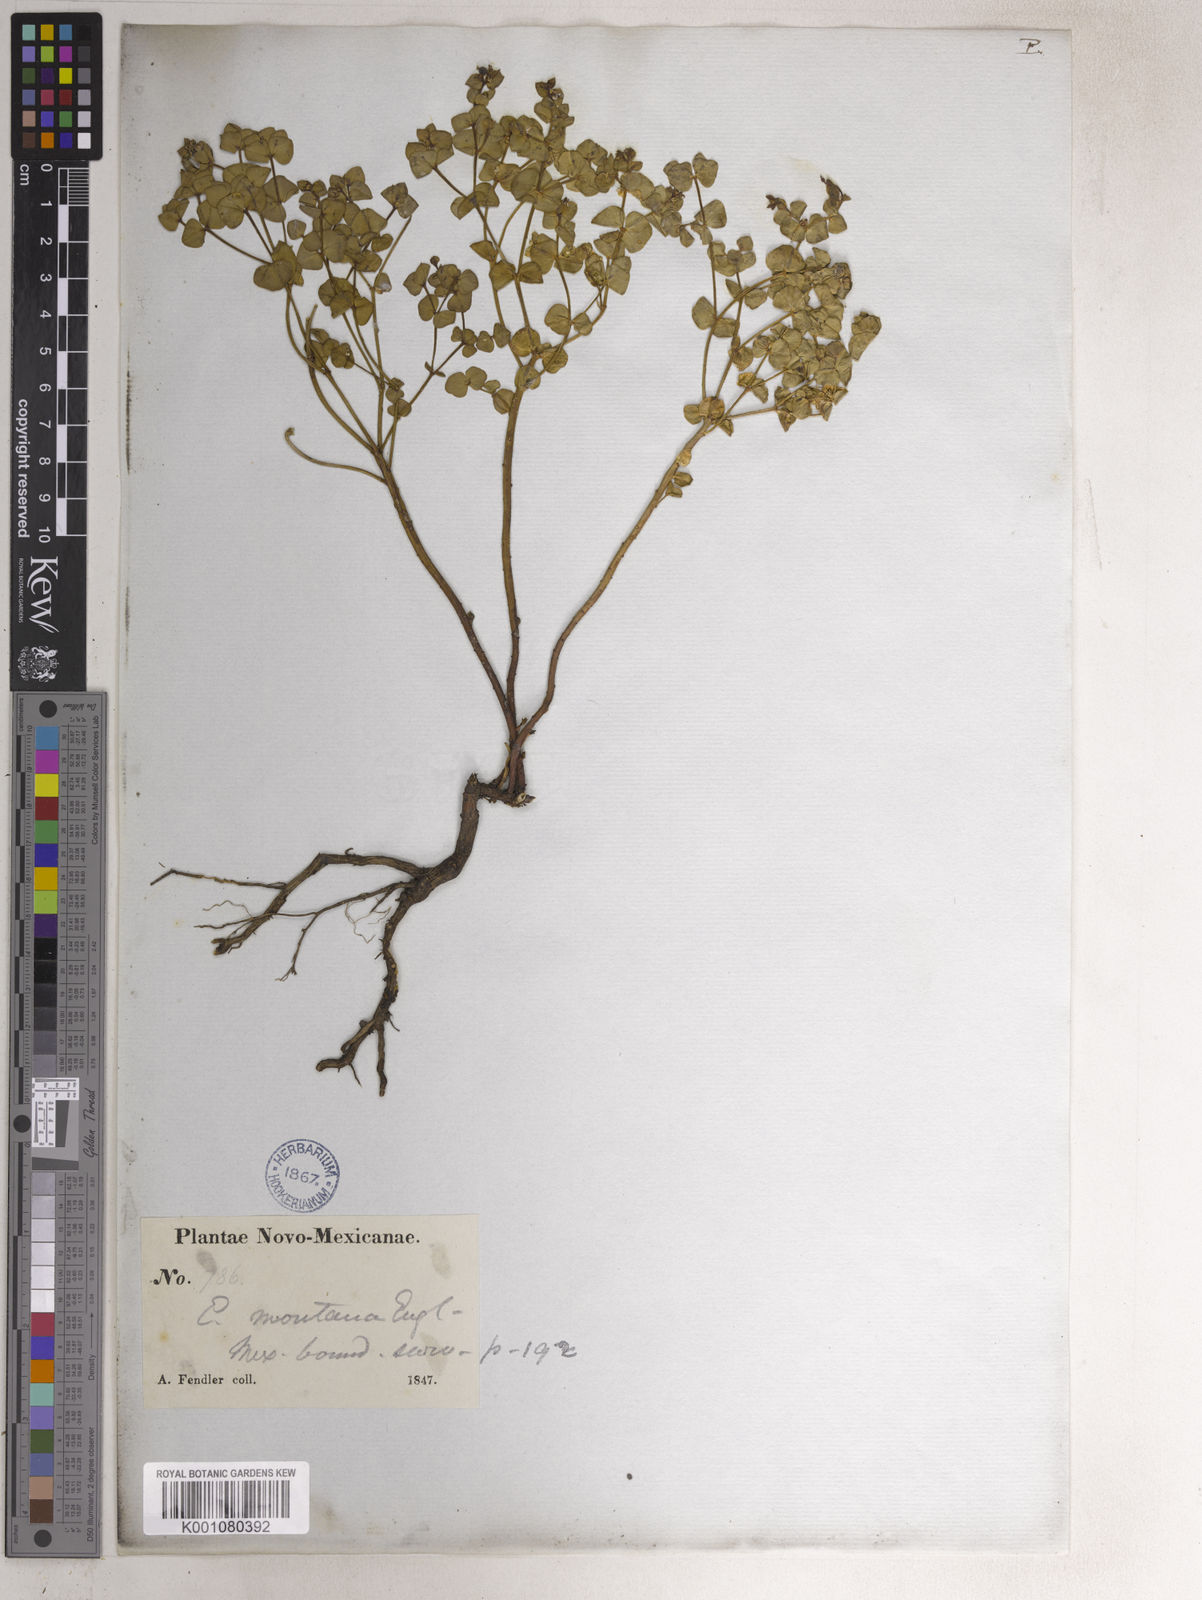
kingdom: Plantae
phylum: Tracheophyta
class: Magnoliopsida
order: Malpighiales
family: Euphorbiaceae
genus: Euphorbia
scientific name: Euphorbia brachycera
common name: Shorthorn spurge
